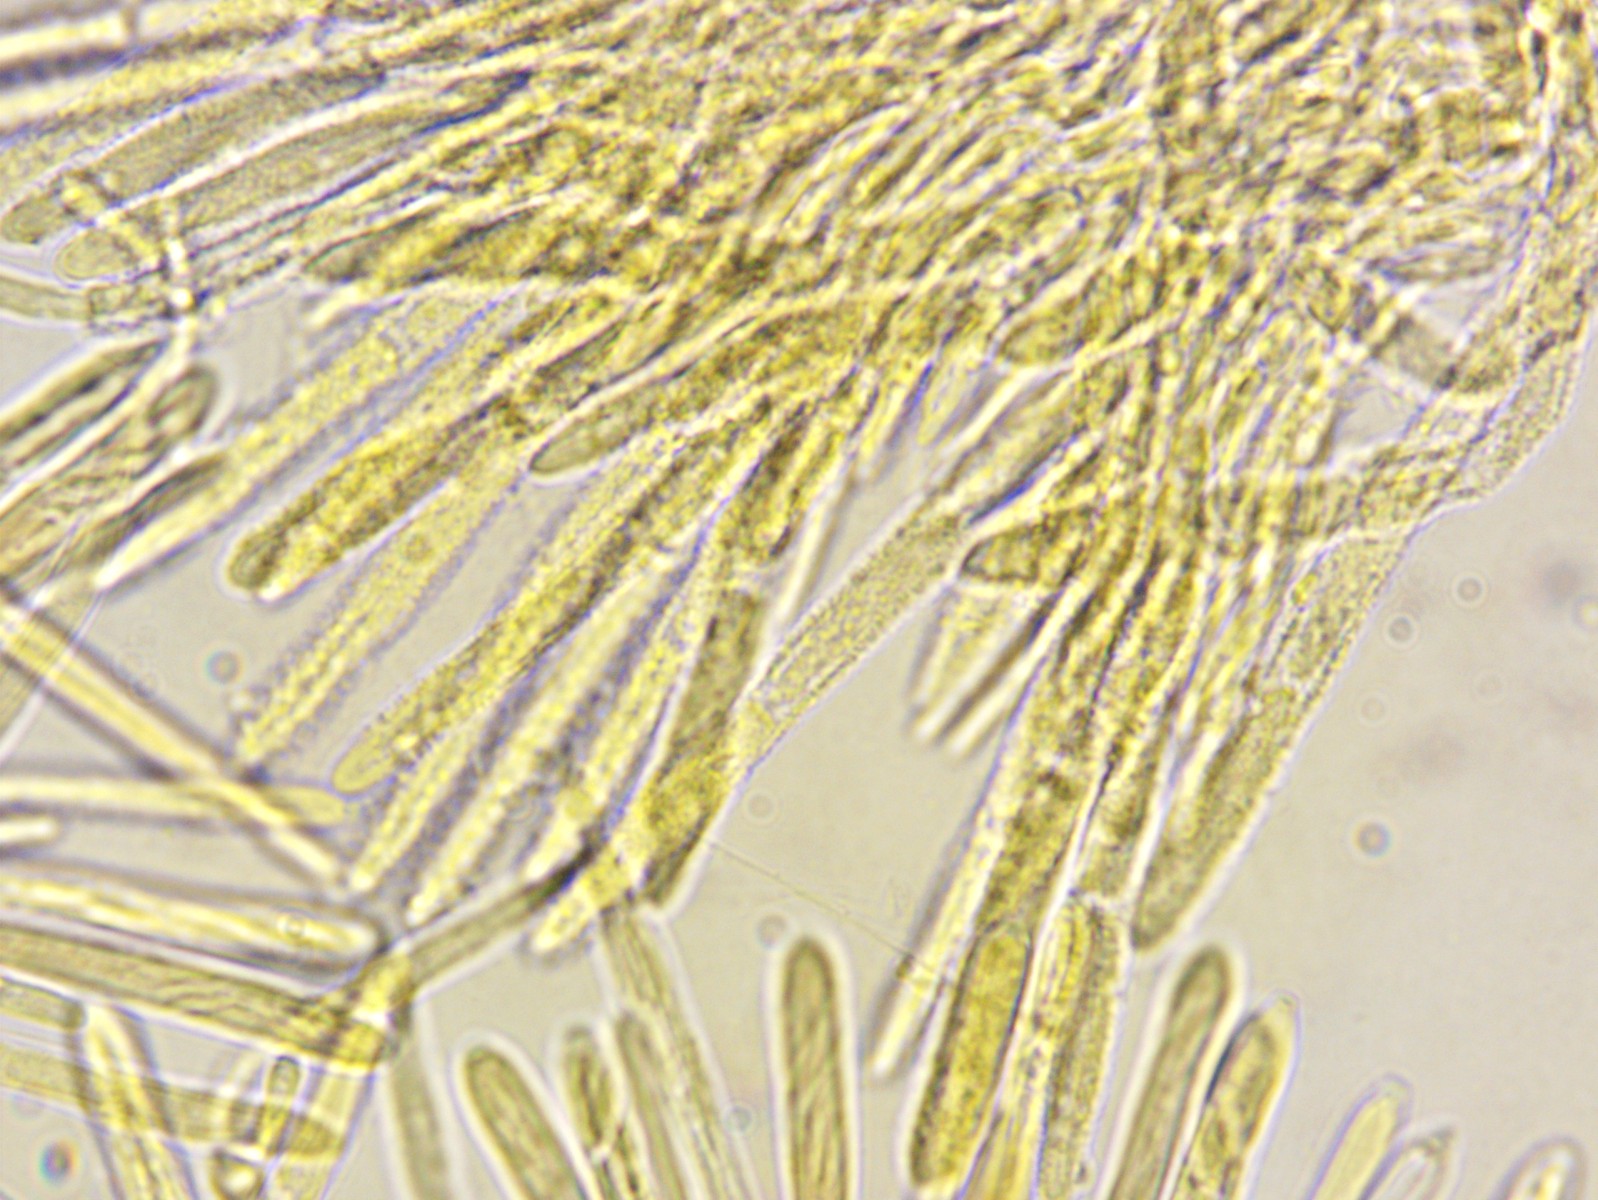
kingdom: Fungi
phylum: Ascomycota
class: Leotiomycetes
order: Helotiales
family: Lachnaceae
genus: Lachnum
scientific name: Lachnum virgineum
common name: jomfru-frynseskive
